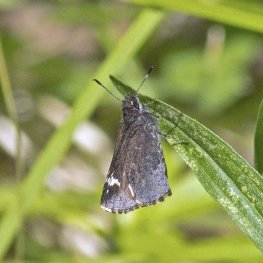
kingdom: Animalia
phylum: Arthropoda
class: Insecta
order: Lepidoptera
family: Hesperiidae
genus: Mastor
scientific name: Mastor vialis
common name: Common Roadside-Skipper
